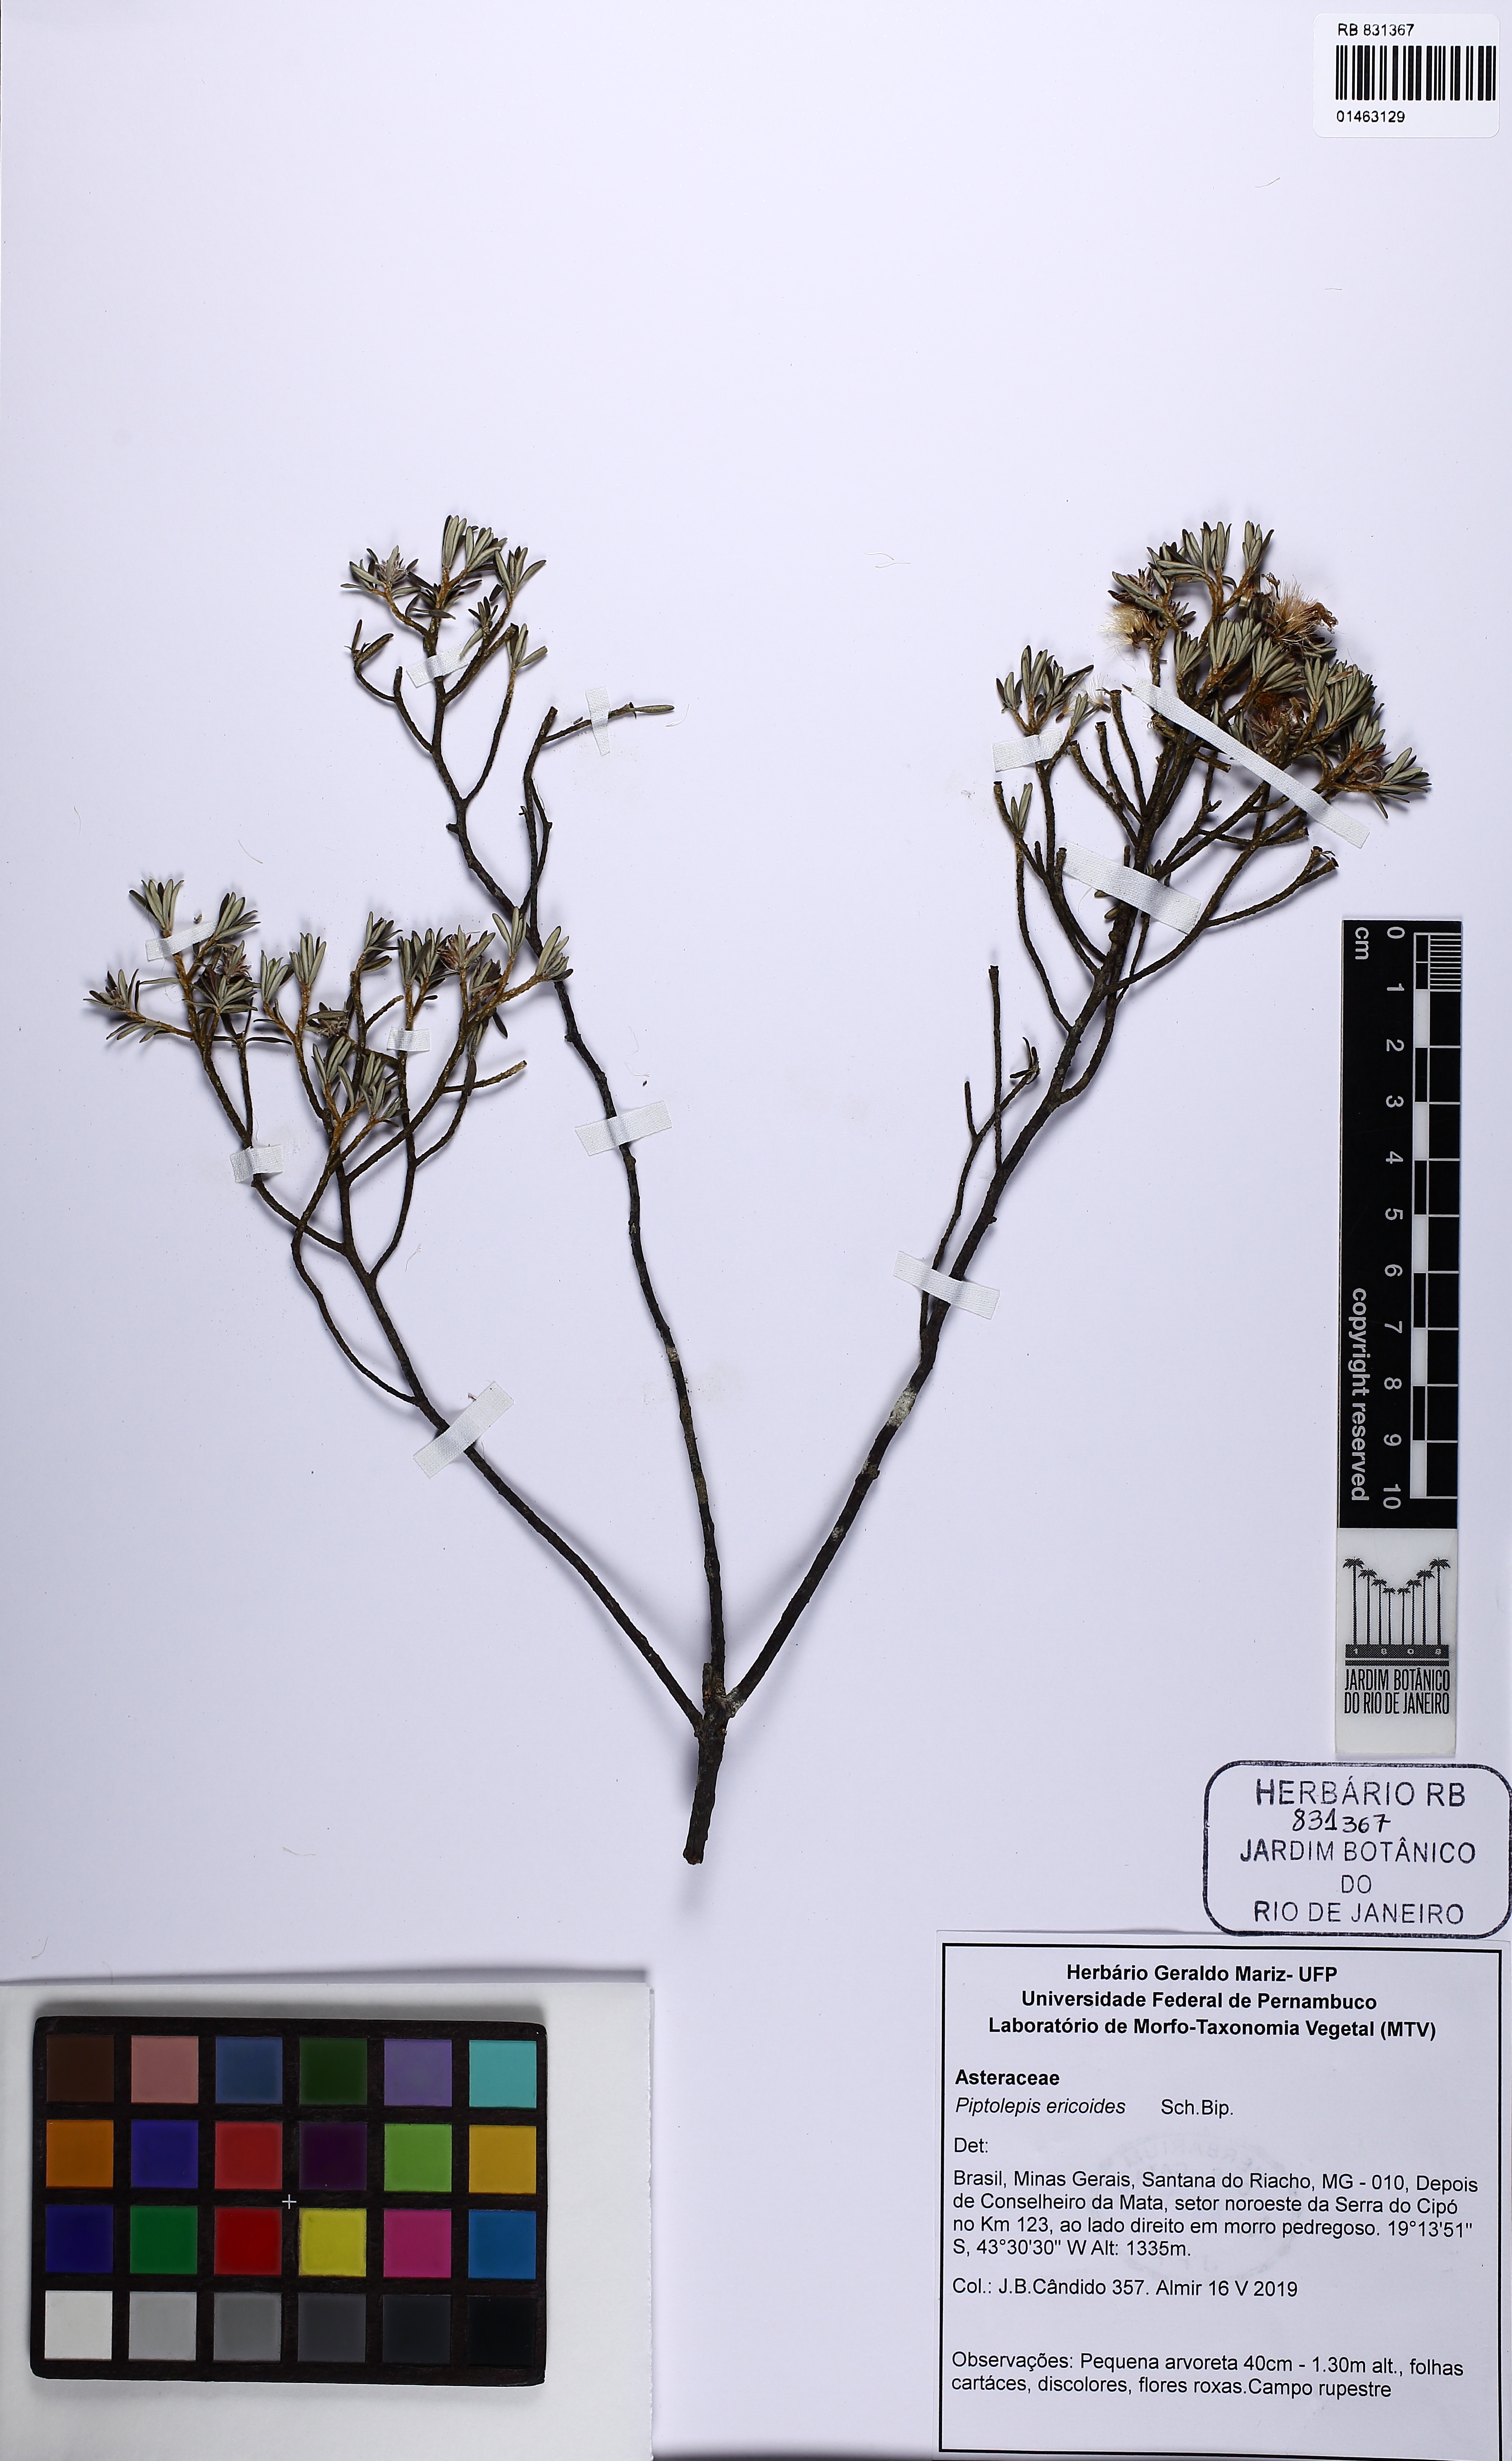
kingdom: Plantae
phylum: Tracheophyta
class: Magnoliopsida
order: Asterales
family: Asteraceae
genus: Piptolepis
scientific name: Piptolepis ericoides
